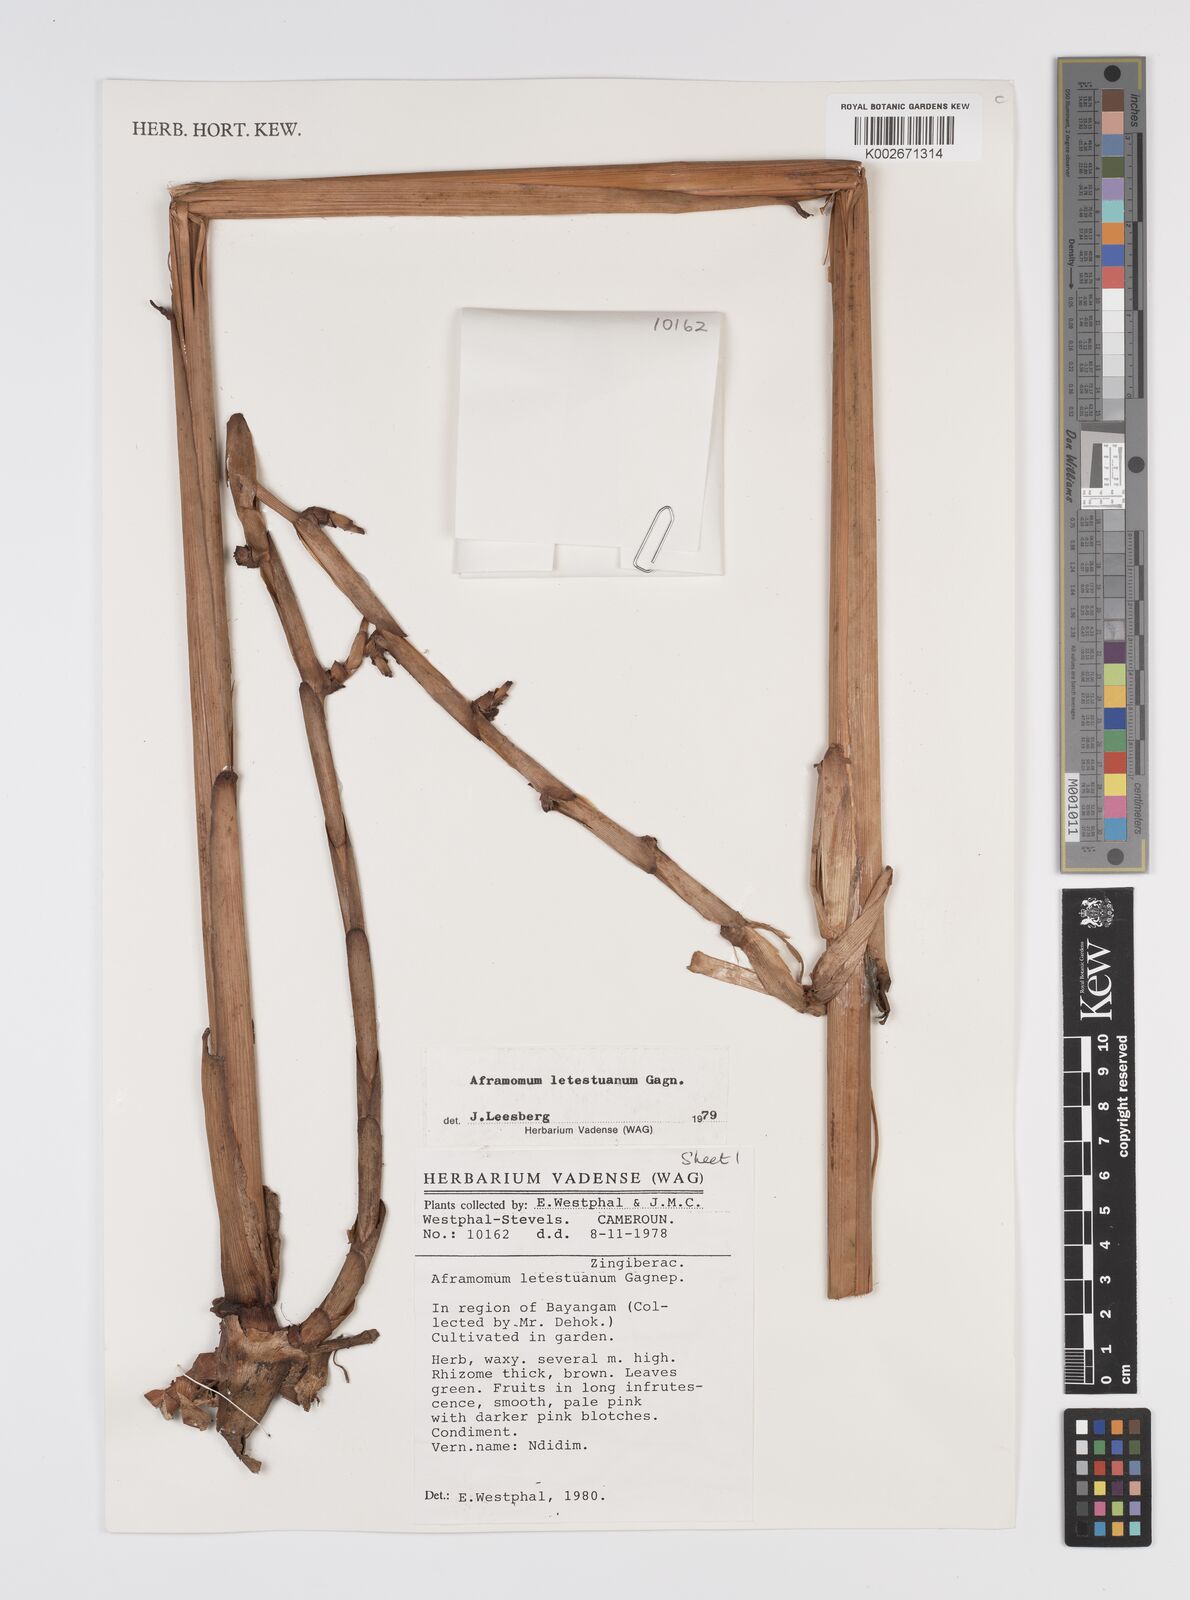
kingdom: Plantae
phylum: Tracheophyta
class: Liliopsida
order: Zingiberales
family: Zingiberaceae
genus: Aframomum
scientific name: Aframomum letestuanum
